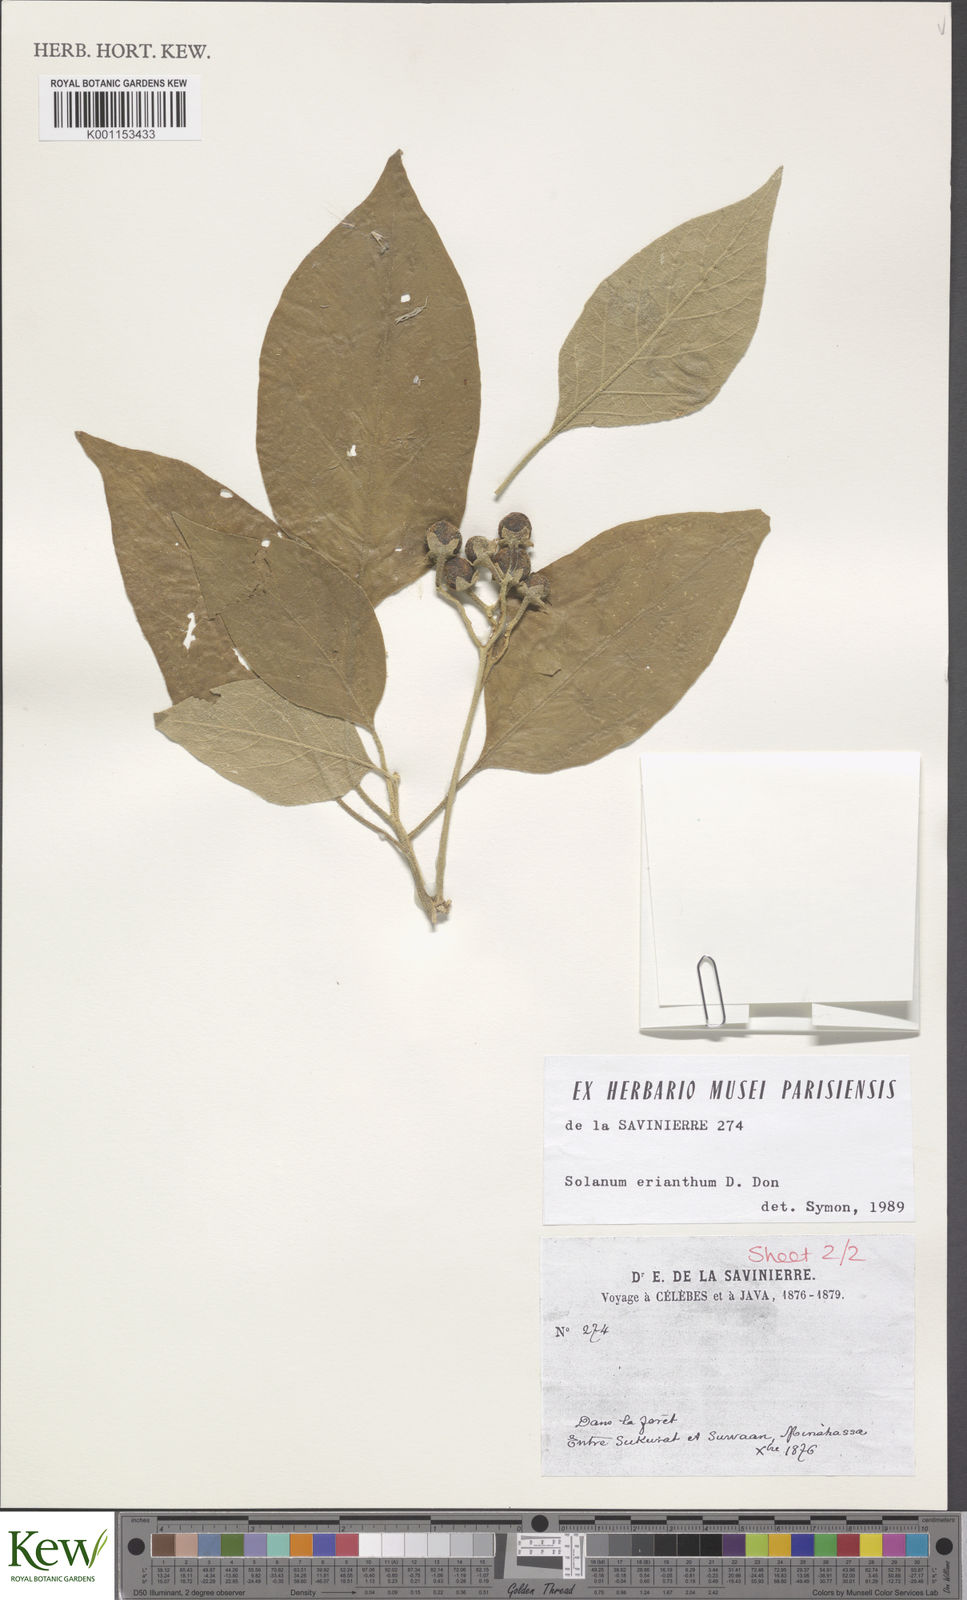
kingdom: Plantae
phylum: Tracheophyta
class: Magnoliopsida
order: Solanales
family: Solanaceae
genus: Solanum
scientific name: Solanum erianthum
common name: Tobacco-tree
